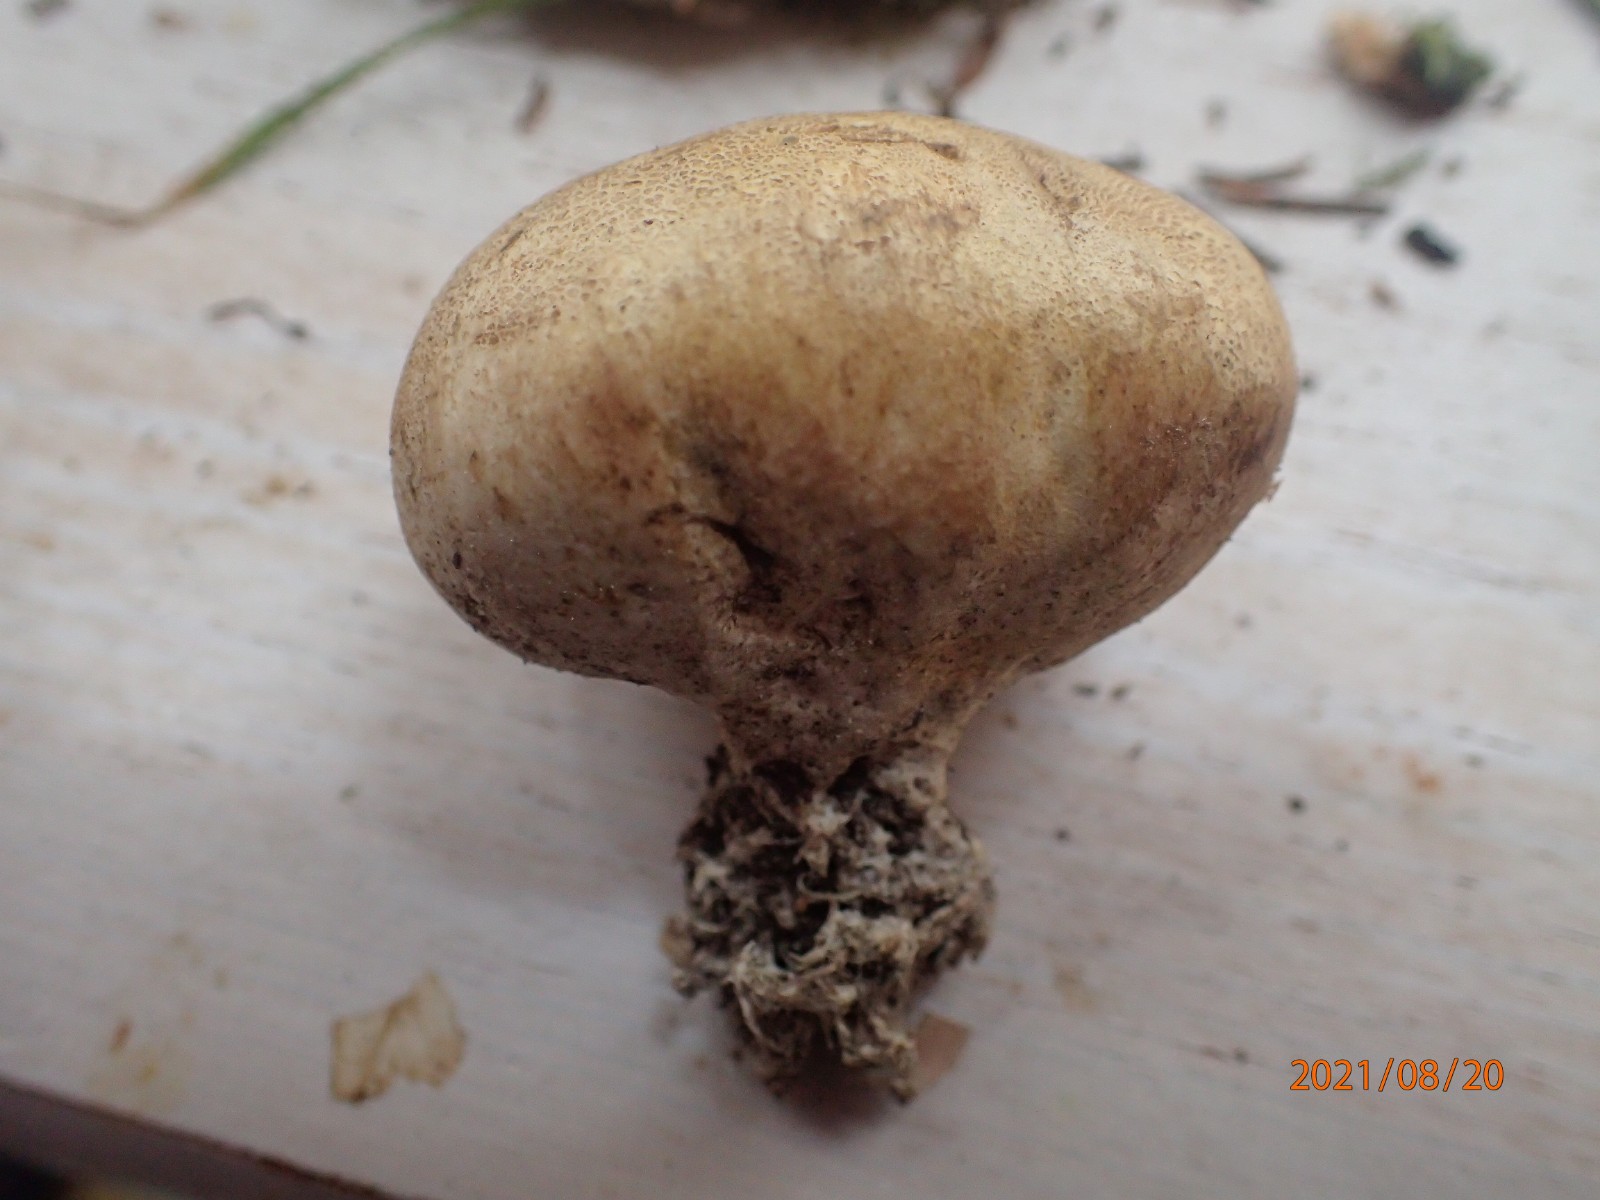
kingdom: Fungi
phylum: Basidiomycota
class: Agaricomycetes
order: Boletales
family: Sclerodermataceae
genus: Scleroderma
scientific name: Scleroderma verrucosum
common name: stilket bruskbold
